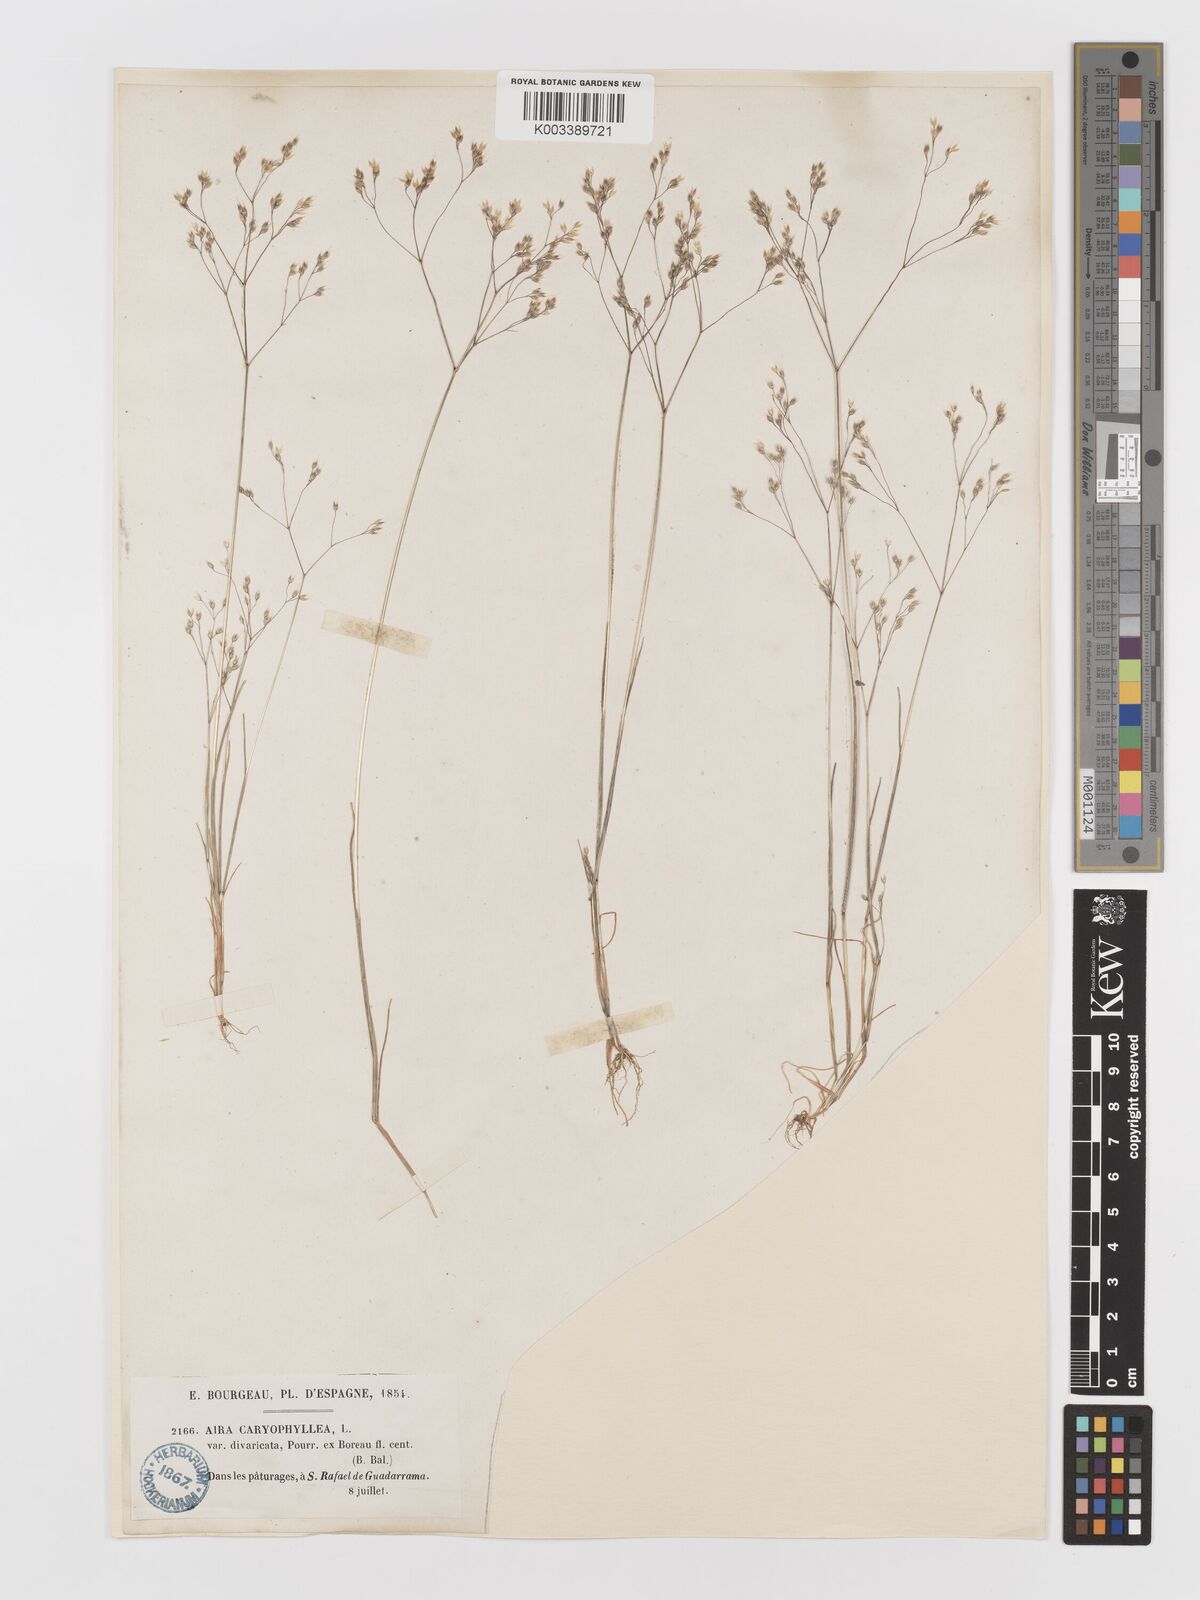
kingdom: Plantae
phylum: Tracheophyta
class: Liliopsida
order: Poales
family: Poaceae
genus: Aira
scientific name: Aira caryophyllea
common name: Silver hairgrass
